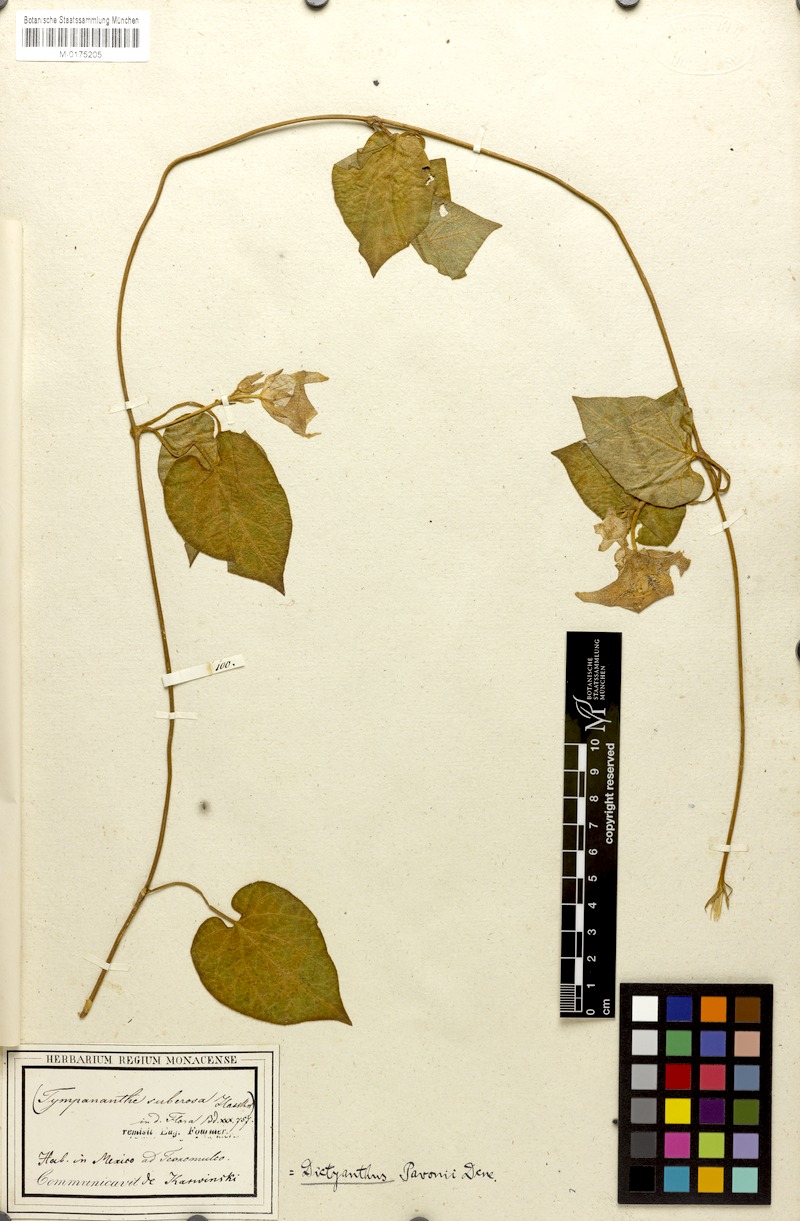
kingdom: Plantae
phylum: Tracheophyta
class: Magnoliopsida
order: Gentianales
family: Apocynaceae
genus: Dictyanthus
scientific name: Dictyanthus pavonii
